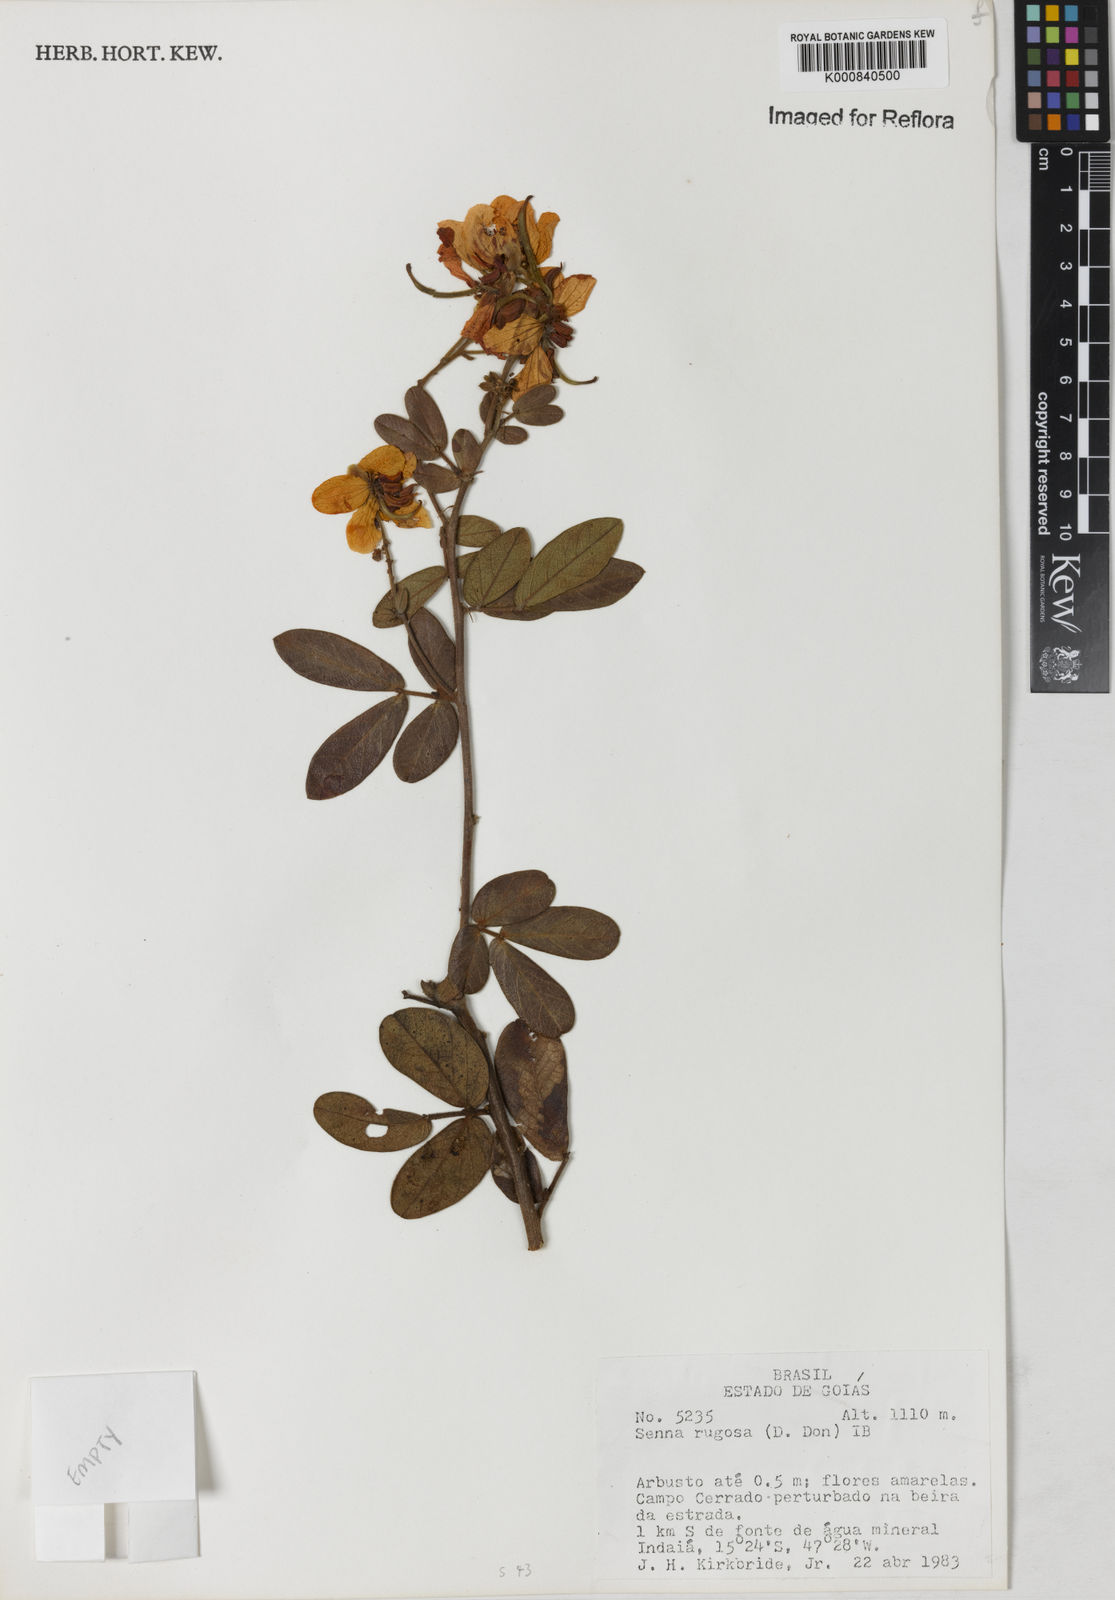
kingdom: Plantae
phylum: Tracheophyta
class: Magnoliopsida
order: Fabales
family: Fabaceae
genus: Senna
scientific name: Senna rugosa
